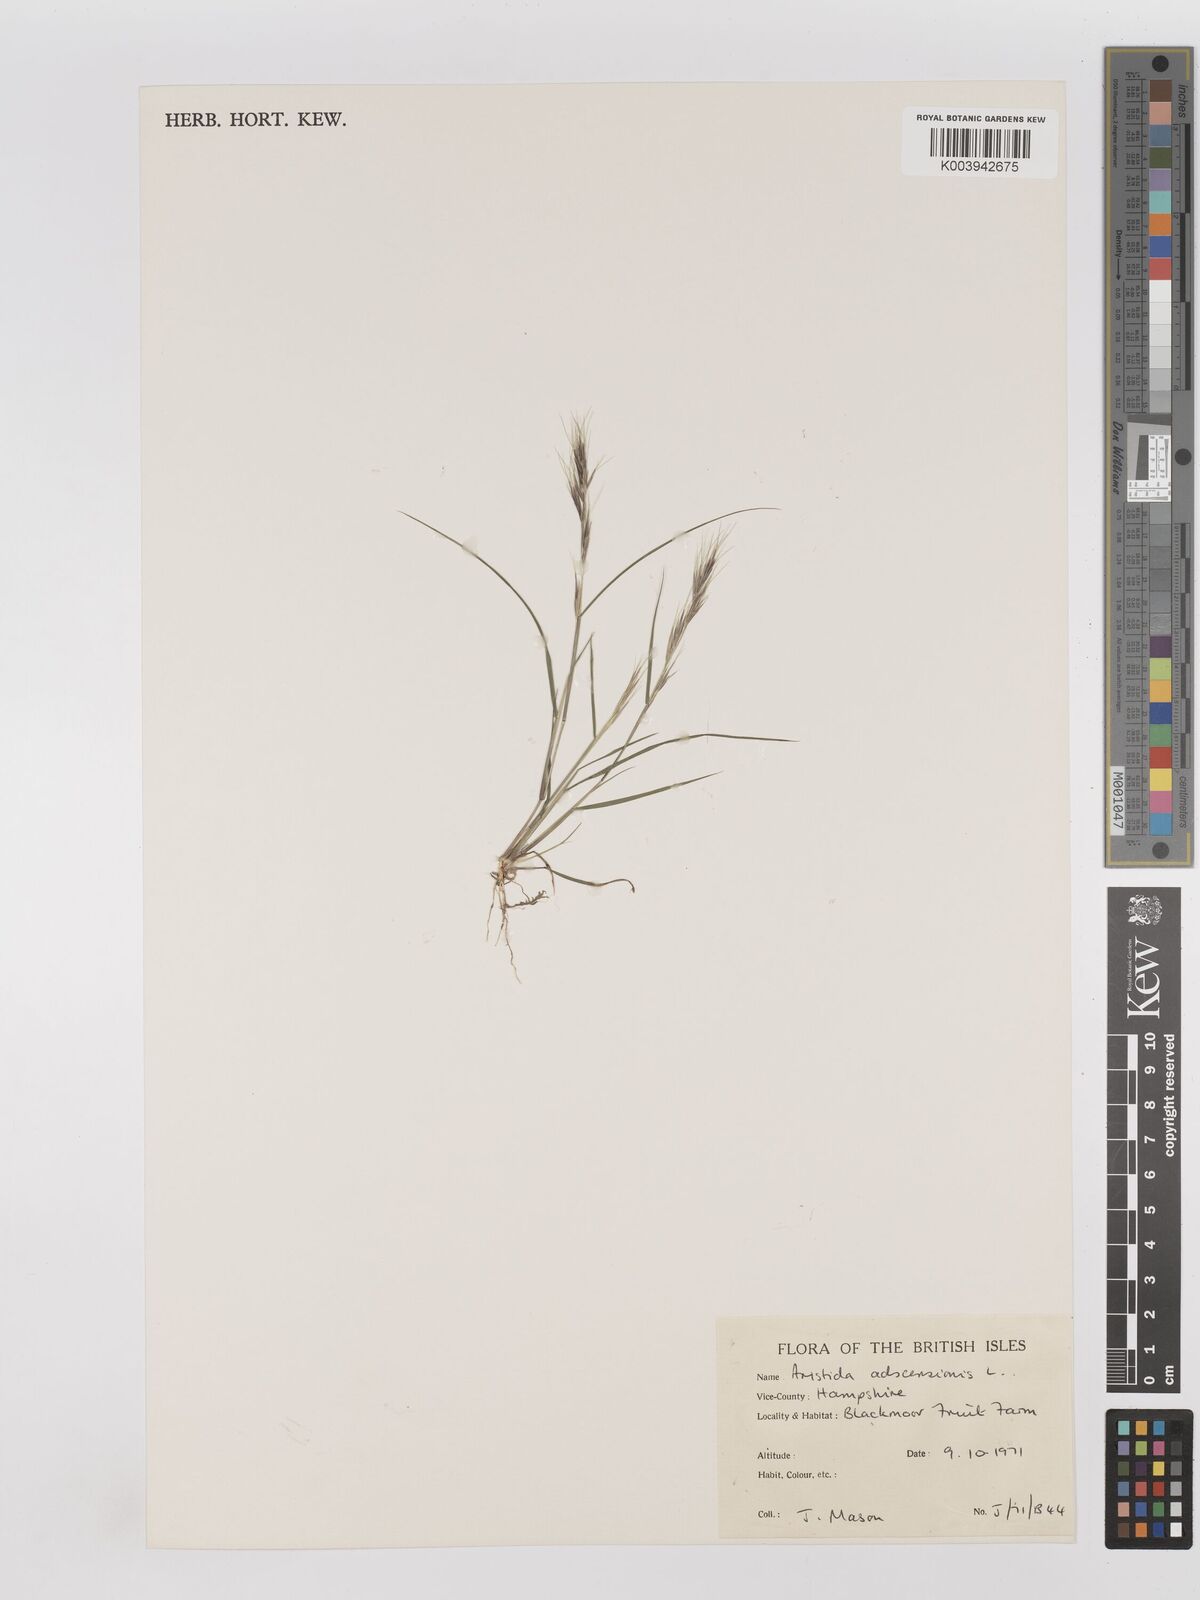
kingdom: Plantae
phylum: Tracheophyta
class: Liliopsida
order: Poales
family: Poaceae
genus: Aristida
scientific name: Aristida adscensionis
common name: Sixweeks threeawn
